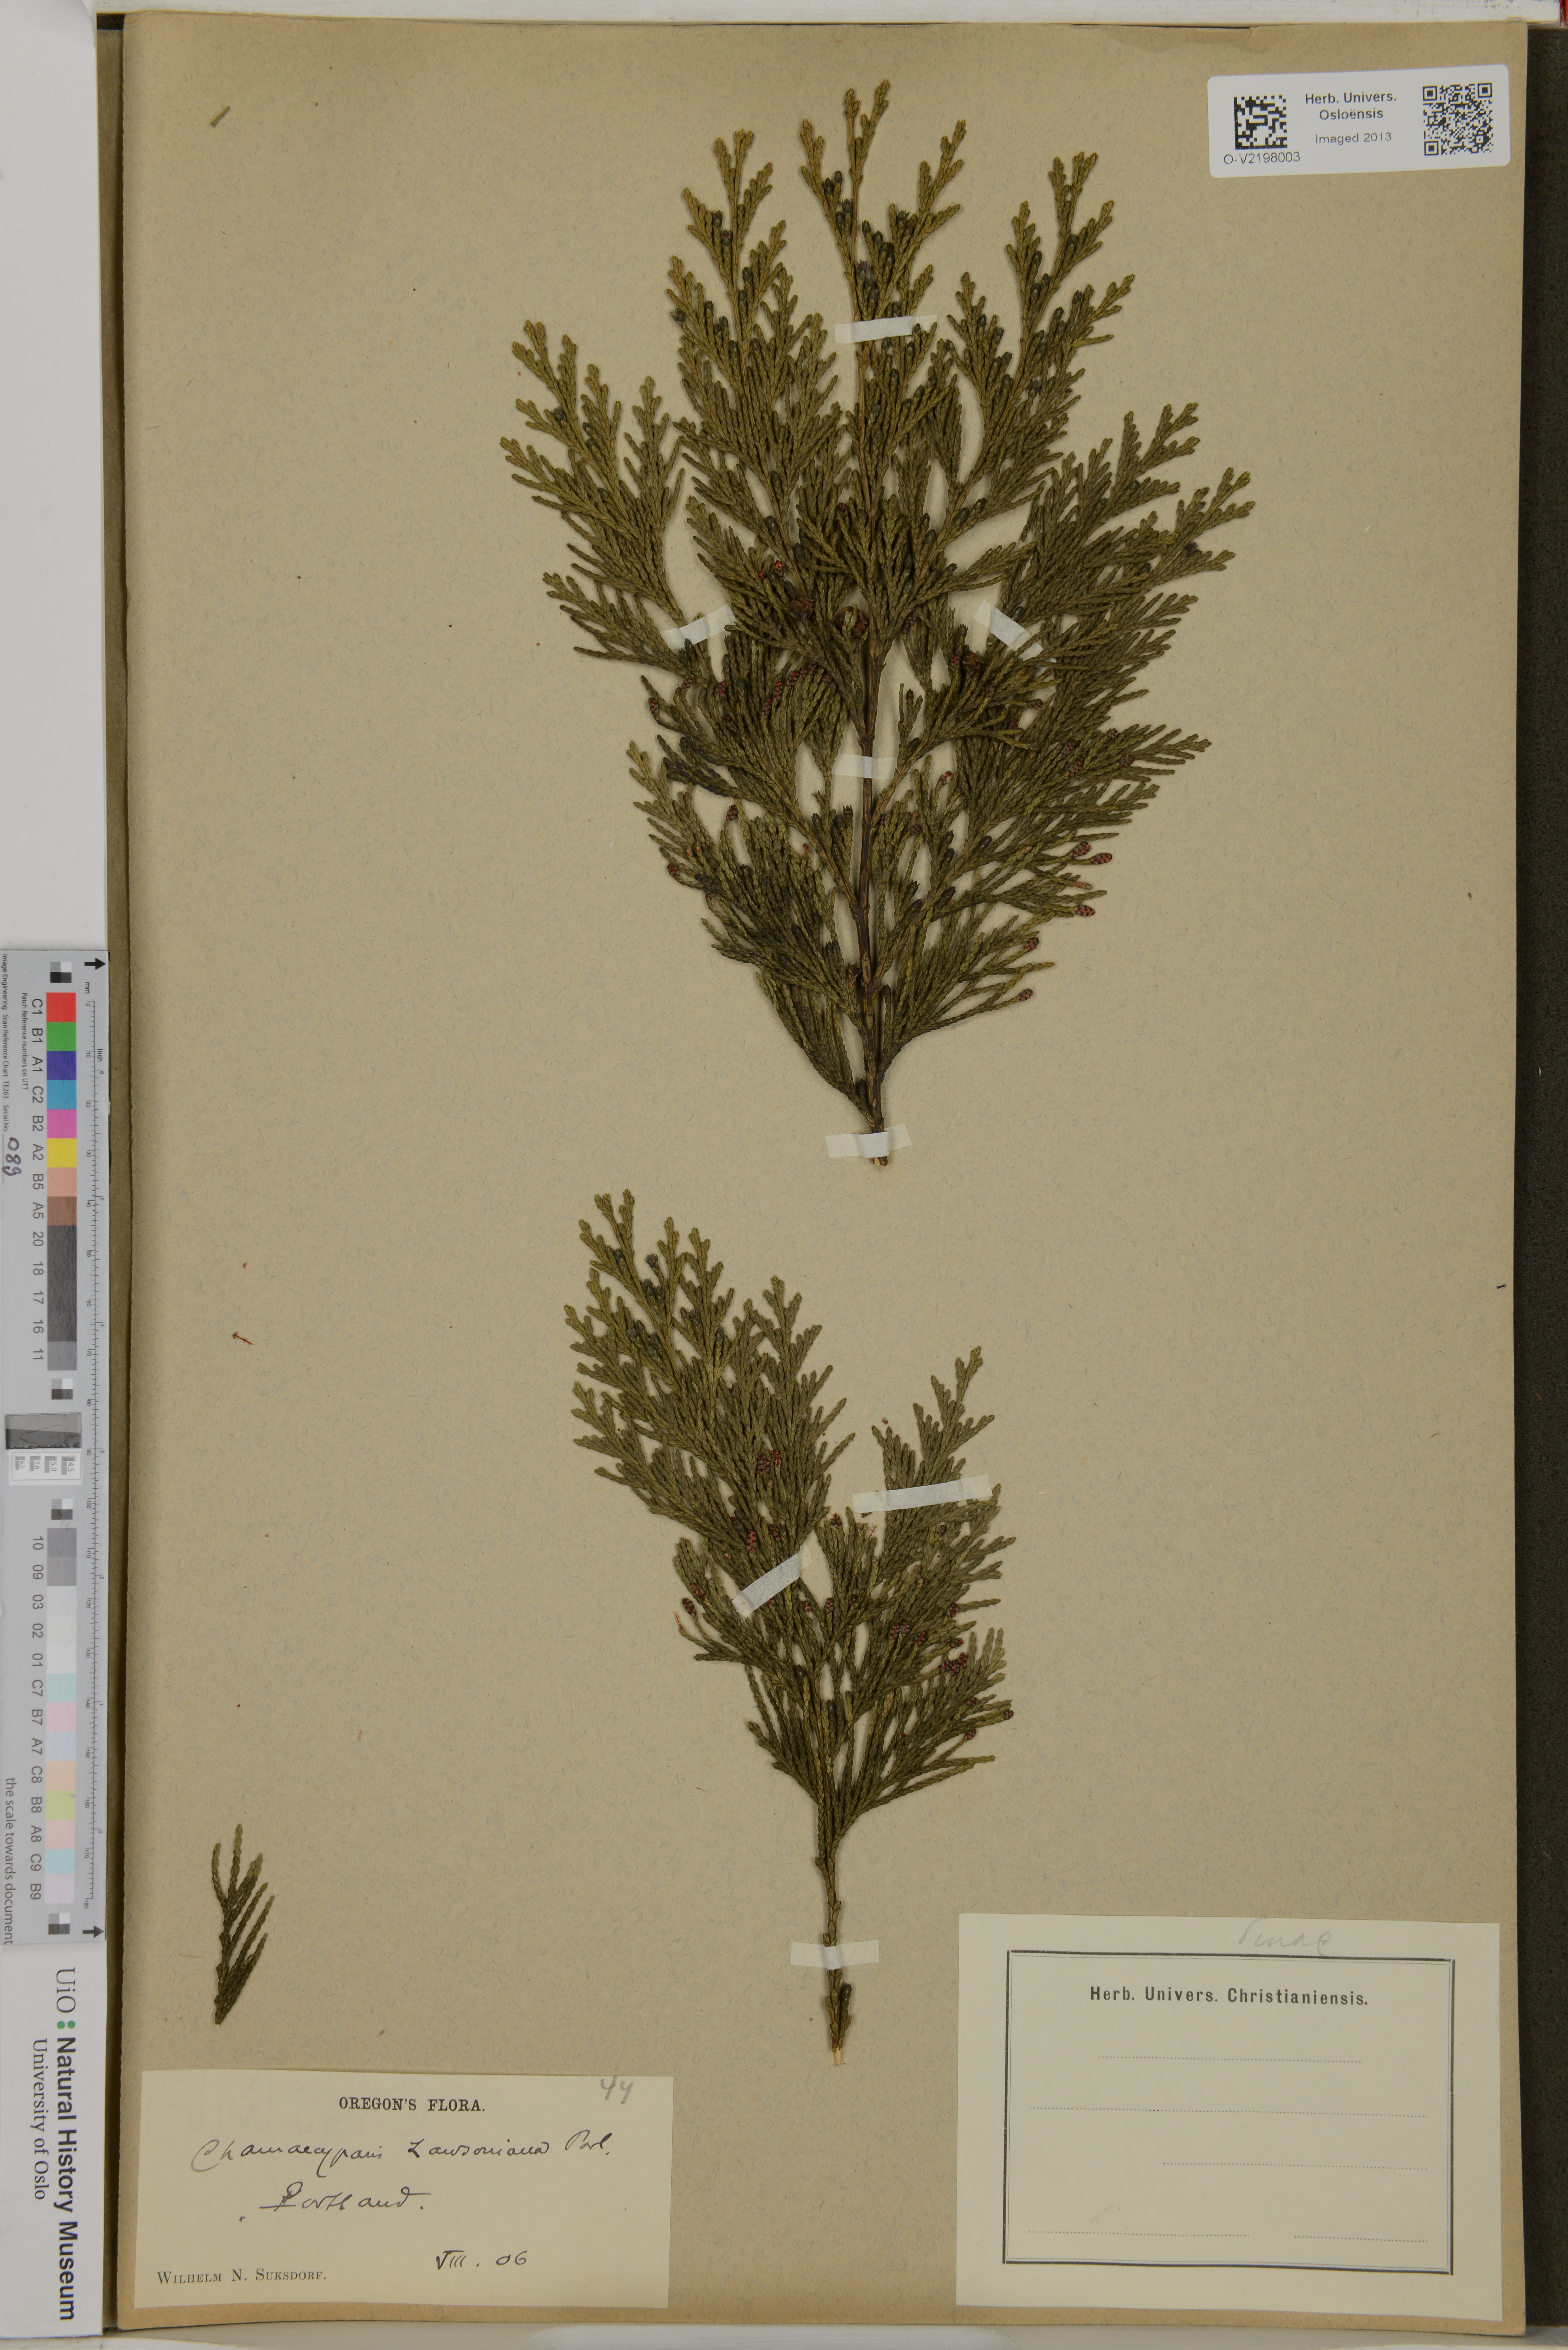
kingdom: Plantae
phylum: Tracheophyta
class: Pinopsida
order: Pinales
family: Cupressaceae
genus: Chamaecyparis
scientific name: Chamaecyparis lawsoniana
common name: Lawson's cypress
